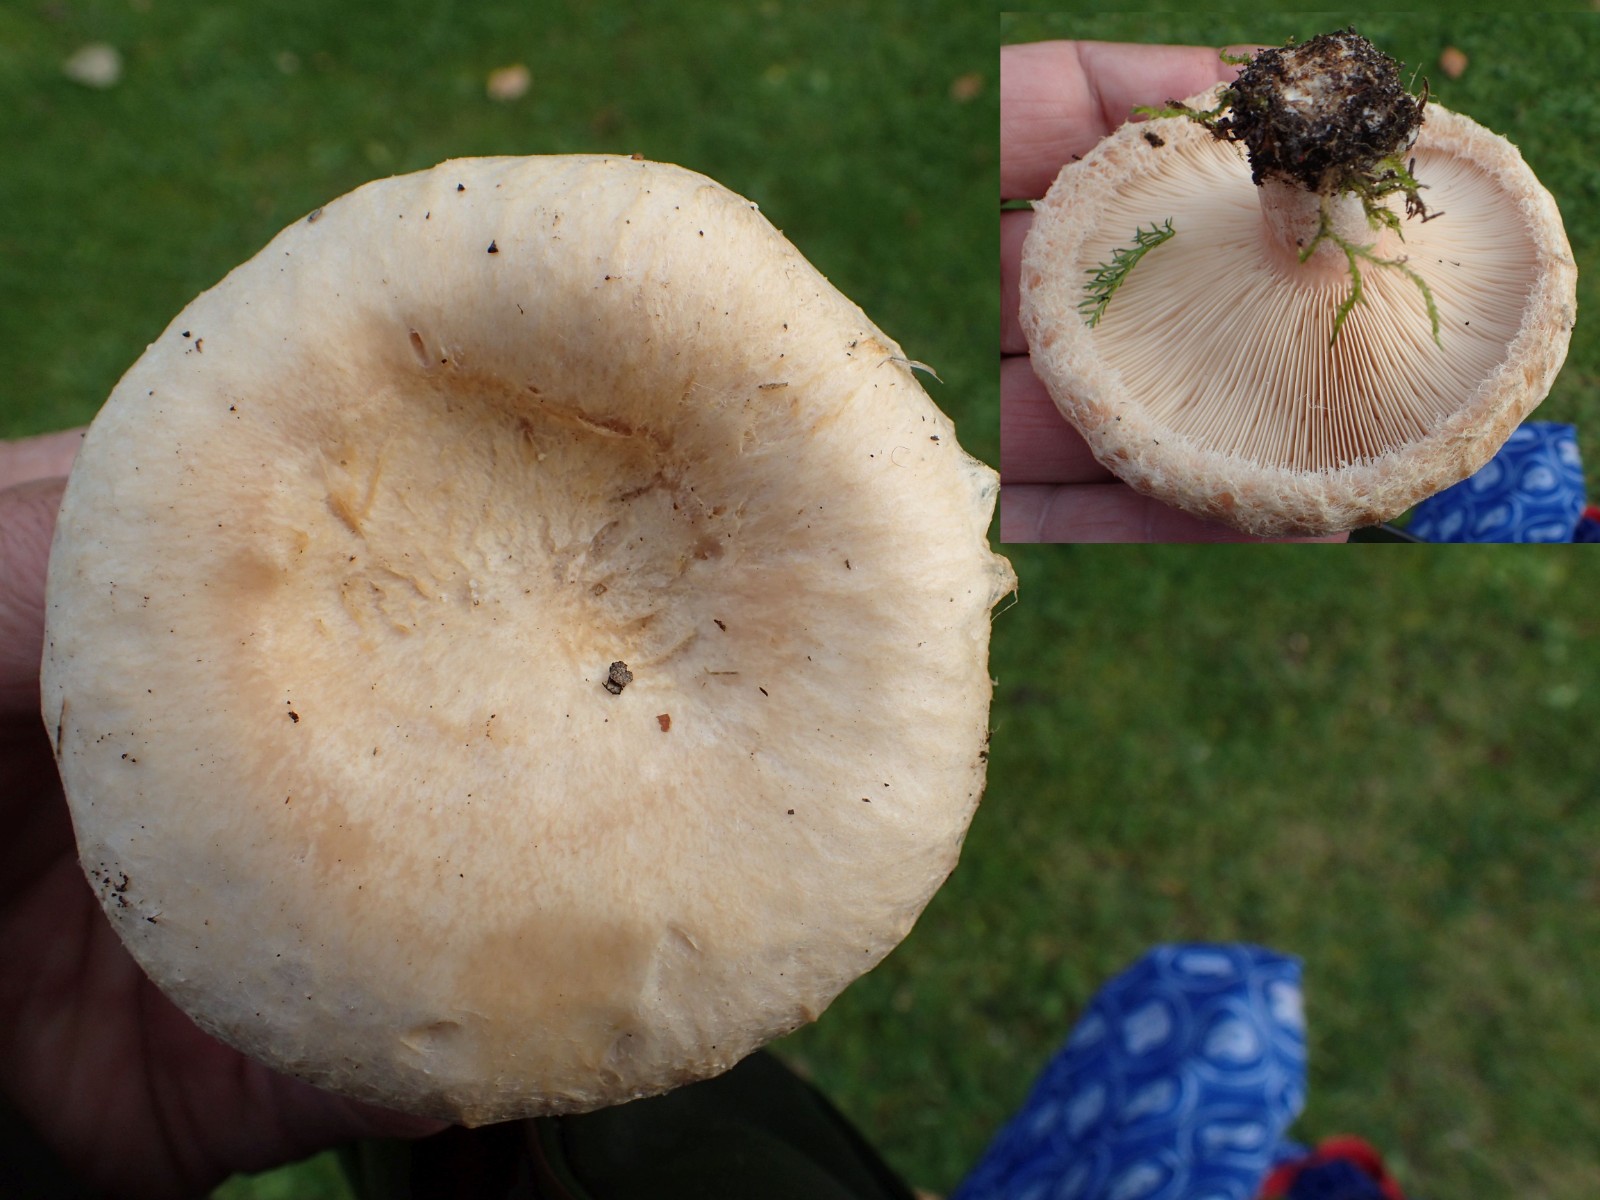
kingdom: Fungi
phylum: Basidiomycota
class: Agaricomycetes
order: Russulales
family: Russulaceae
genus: Lactarius
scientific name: Lactarius pubescens
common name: dunet mælkehat
